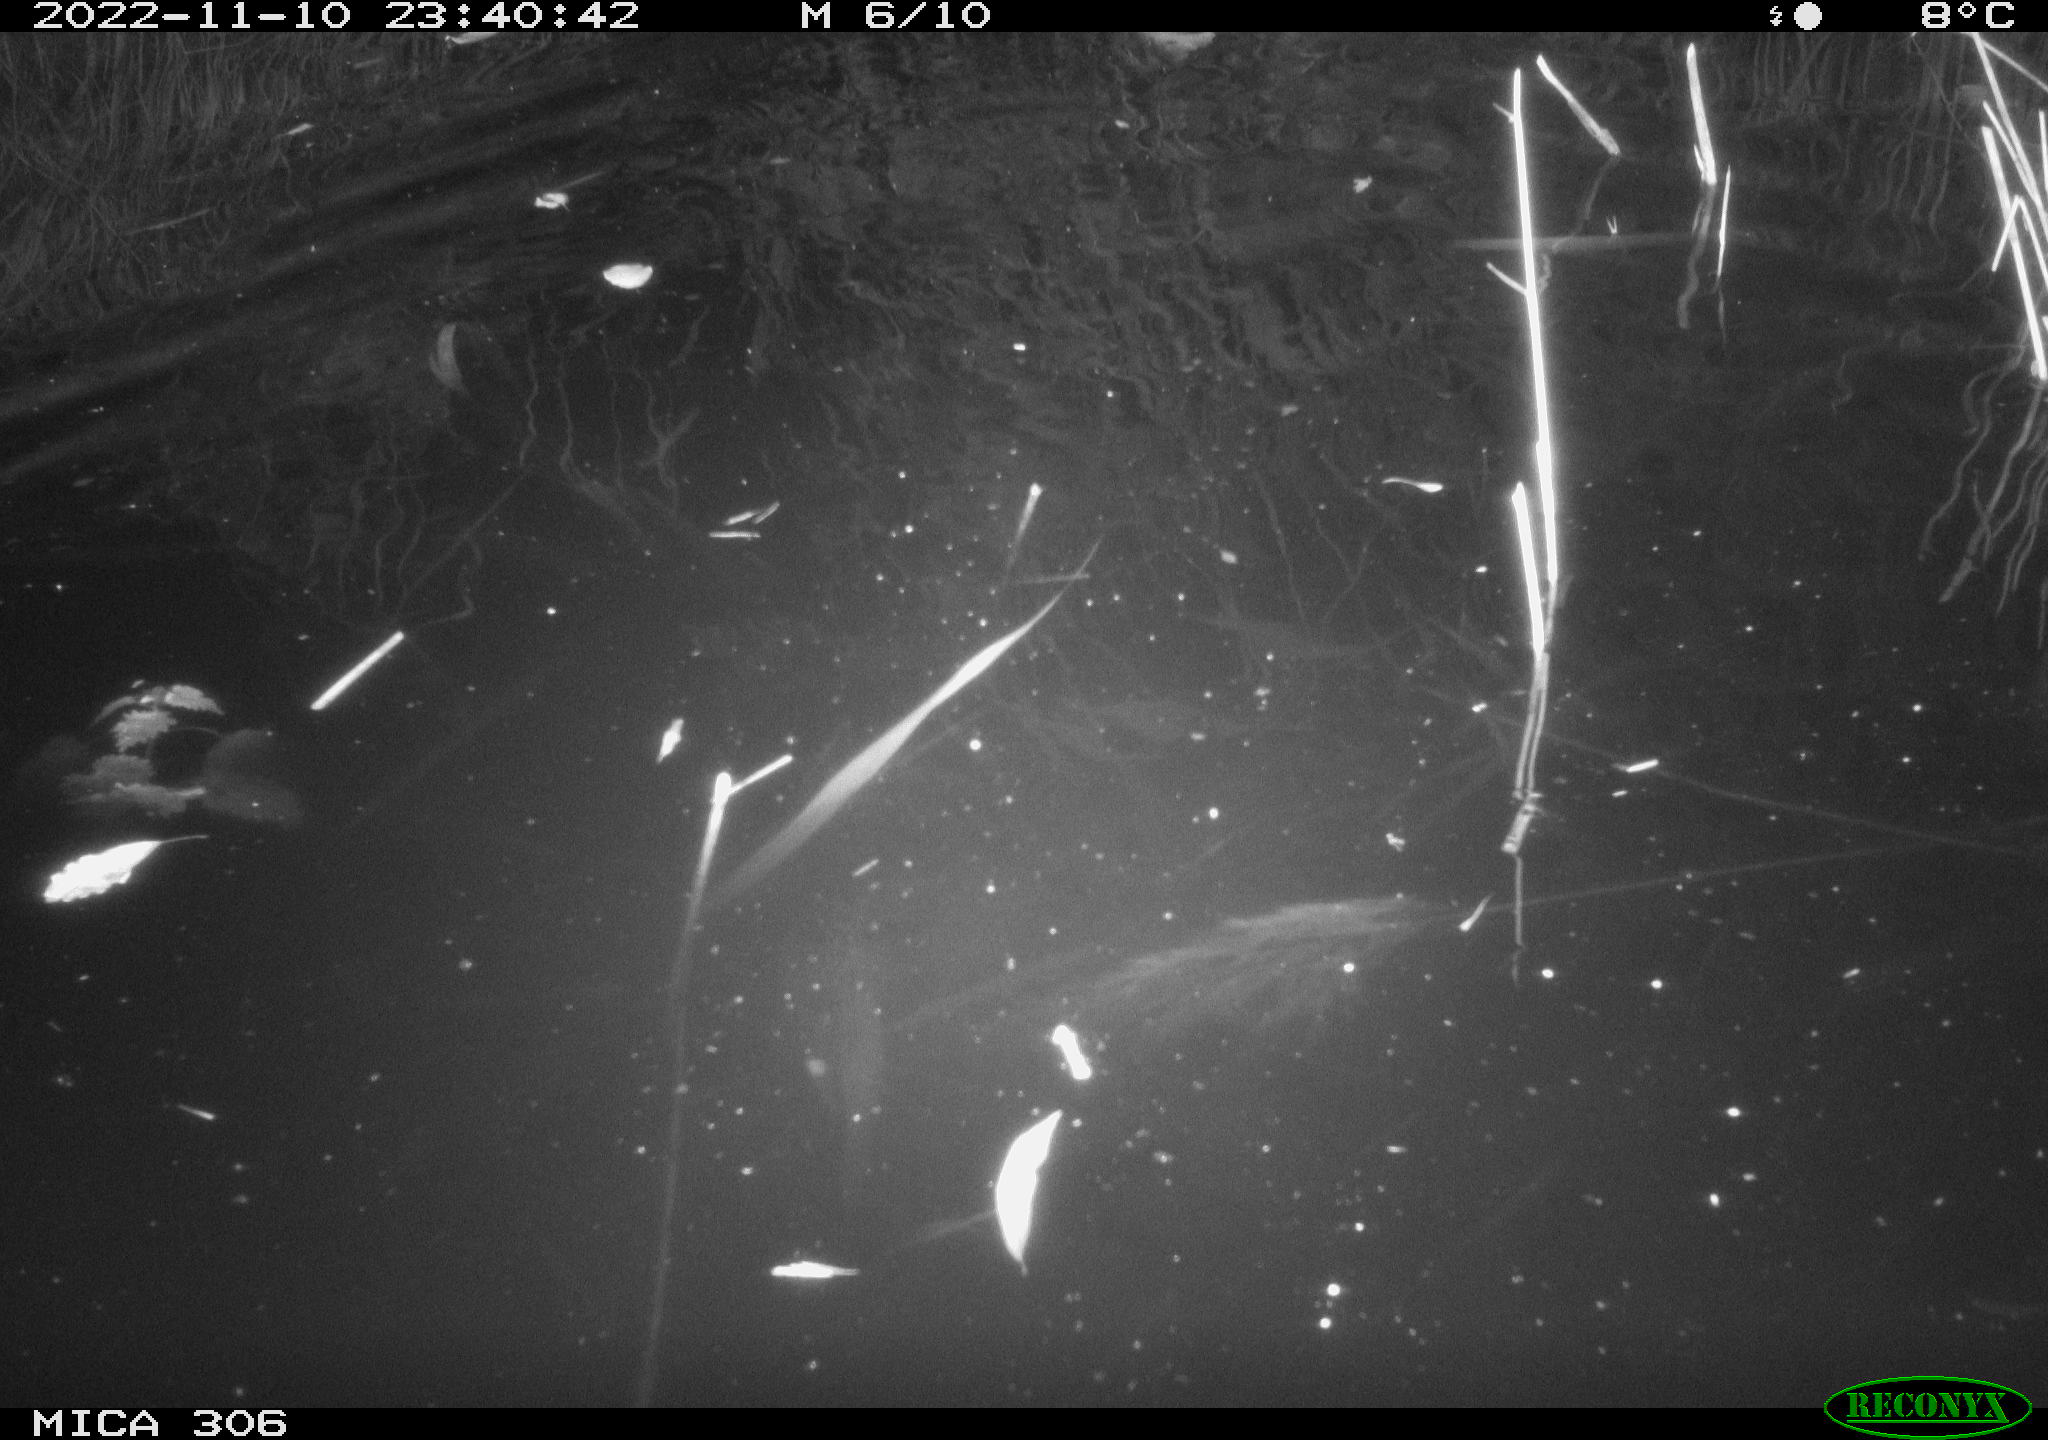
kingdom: Animalia
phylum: Chordata
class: Mammalia
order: Rodentia
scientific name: Rodentia
